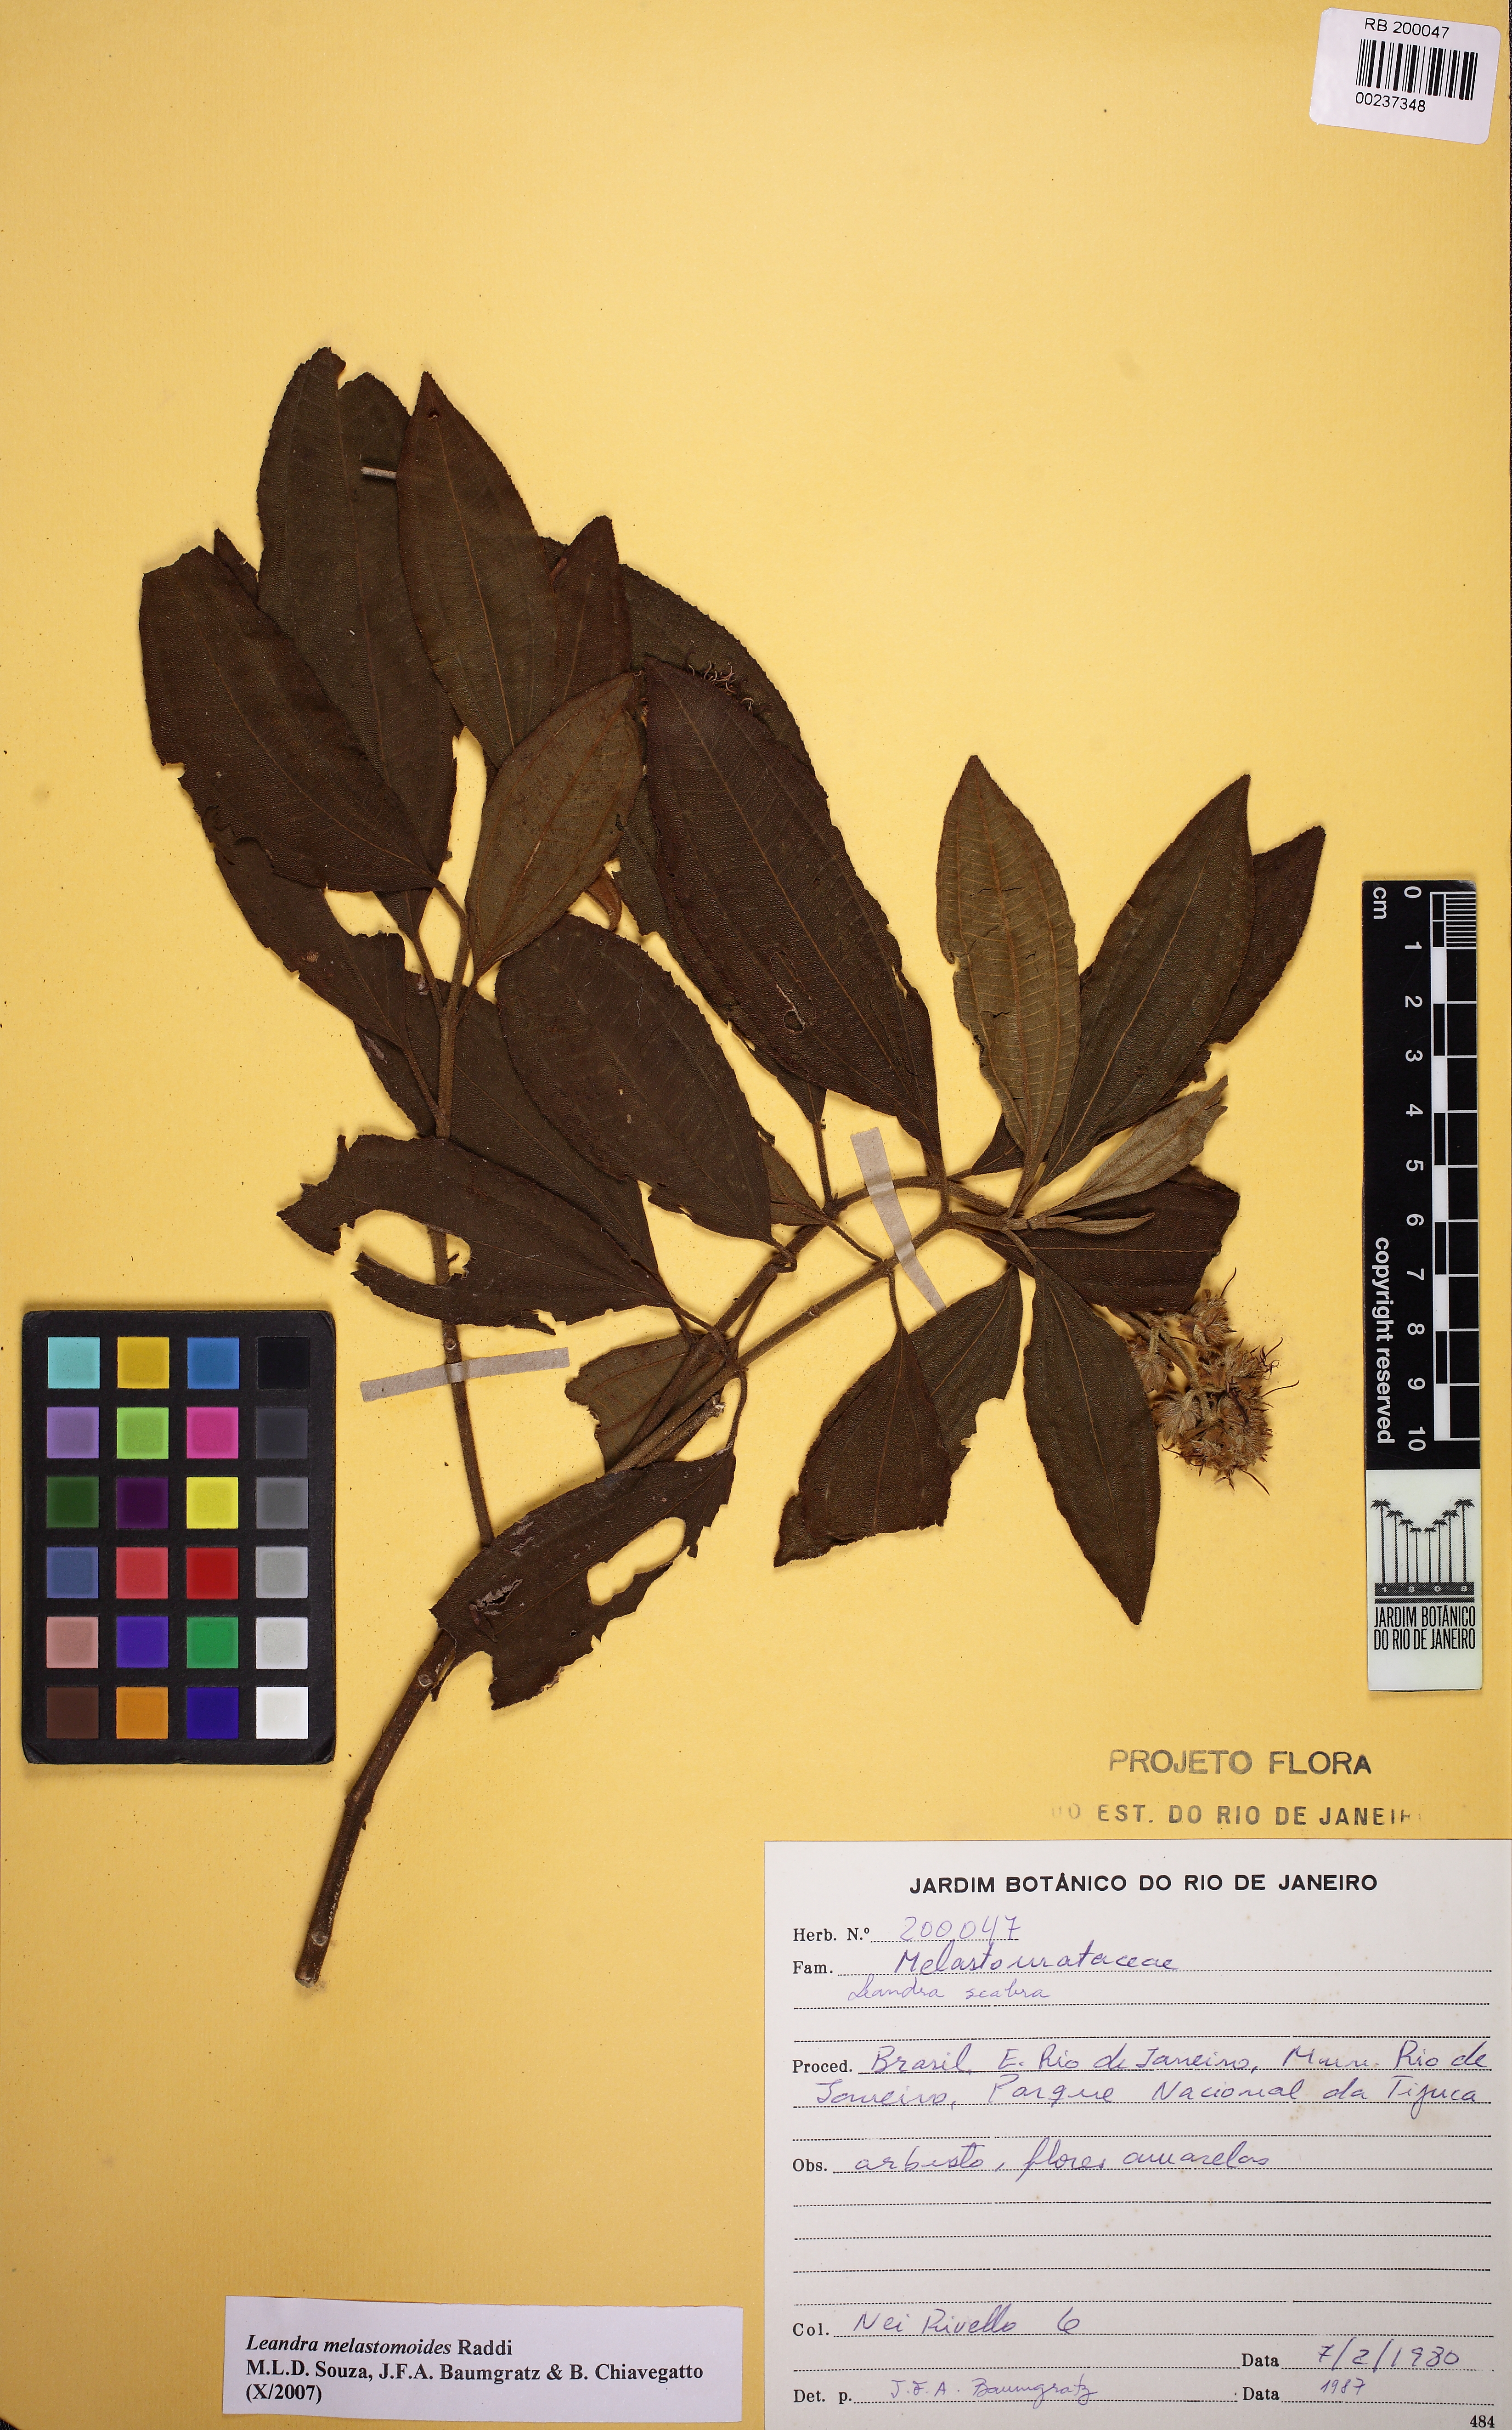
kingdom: Plantae
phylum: Tracheophyta
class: Magnoliopsida
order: Myrtales
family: Melastomataceae
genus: Miconia
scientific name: Miconia melastomoides
